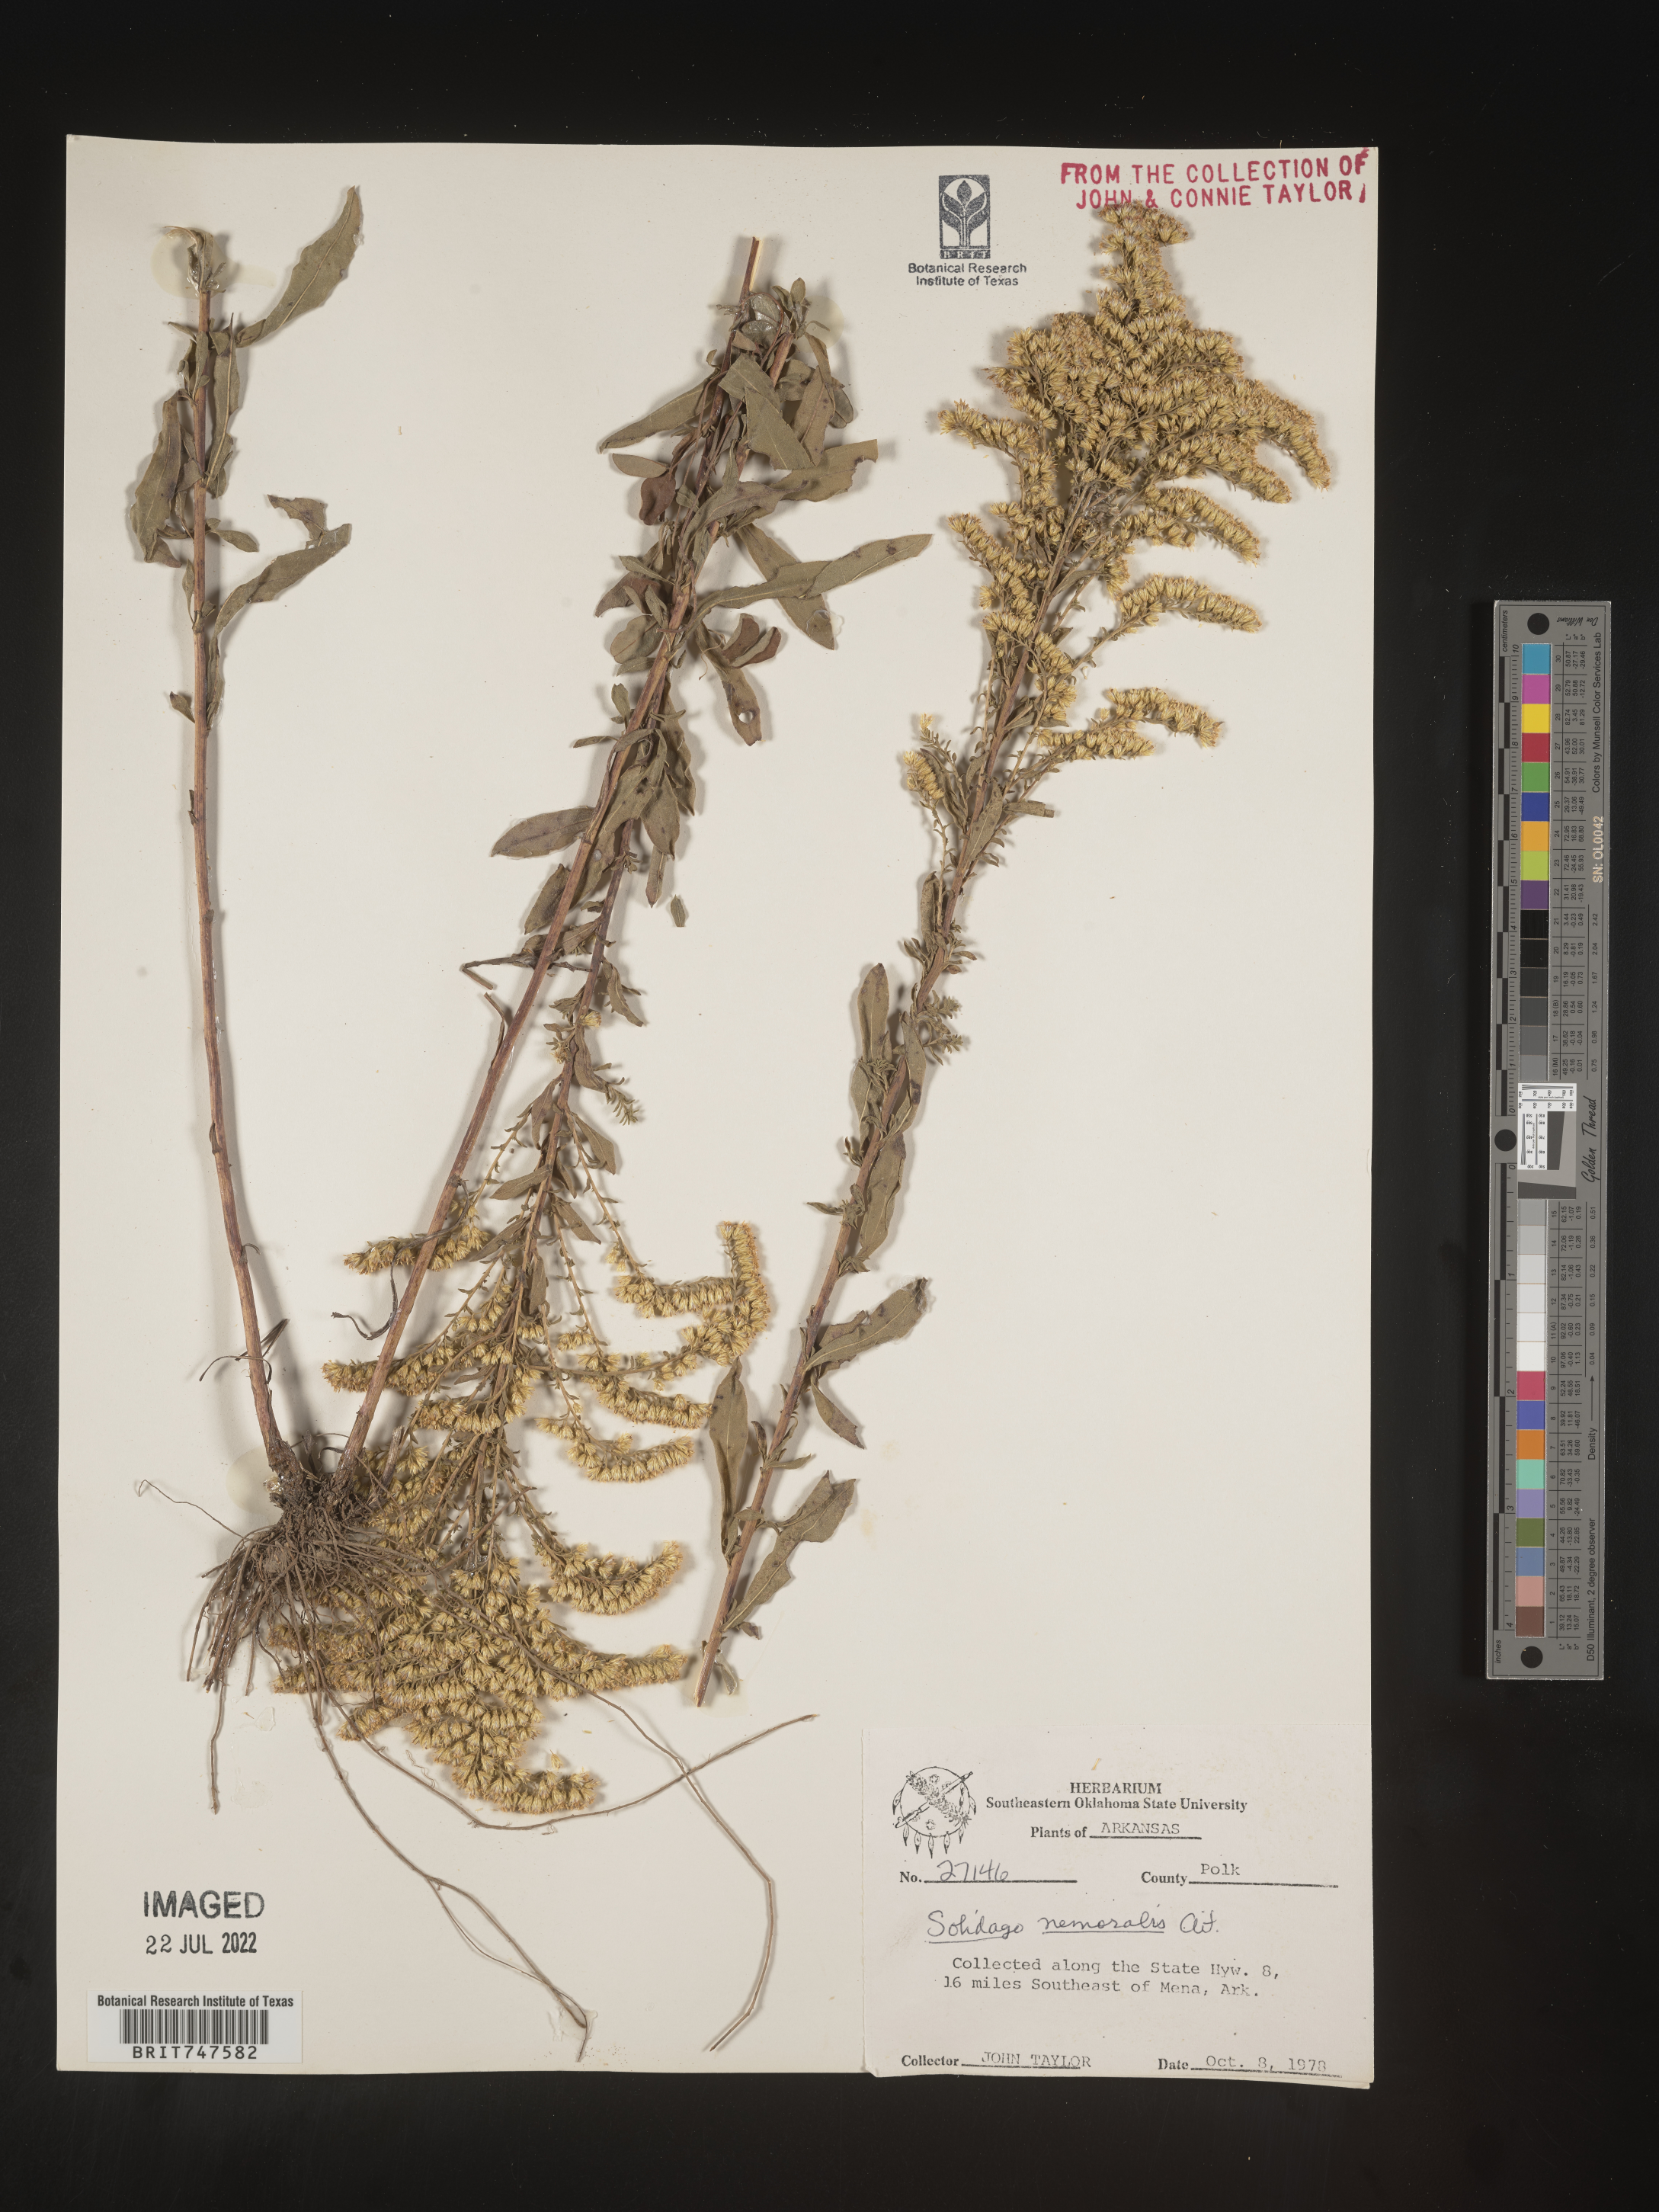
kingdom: Plantae
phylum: Tracheophyta
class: Magnoliopsida
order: Asterales
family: Asteraceae
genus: Solidago
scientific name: Solidago nemoralis
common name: Grey goldenrod
